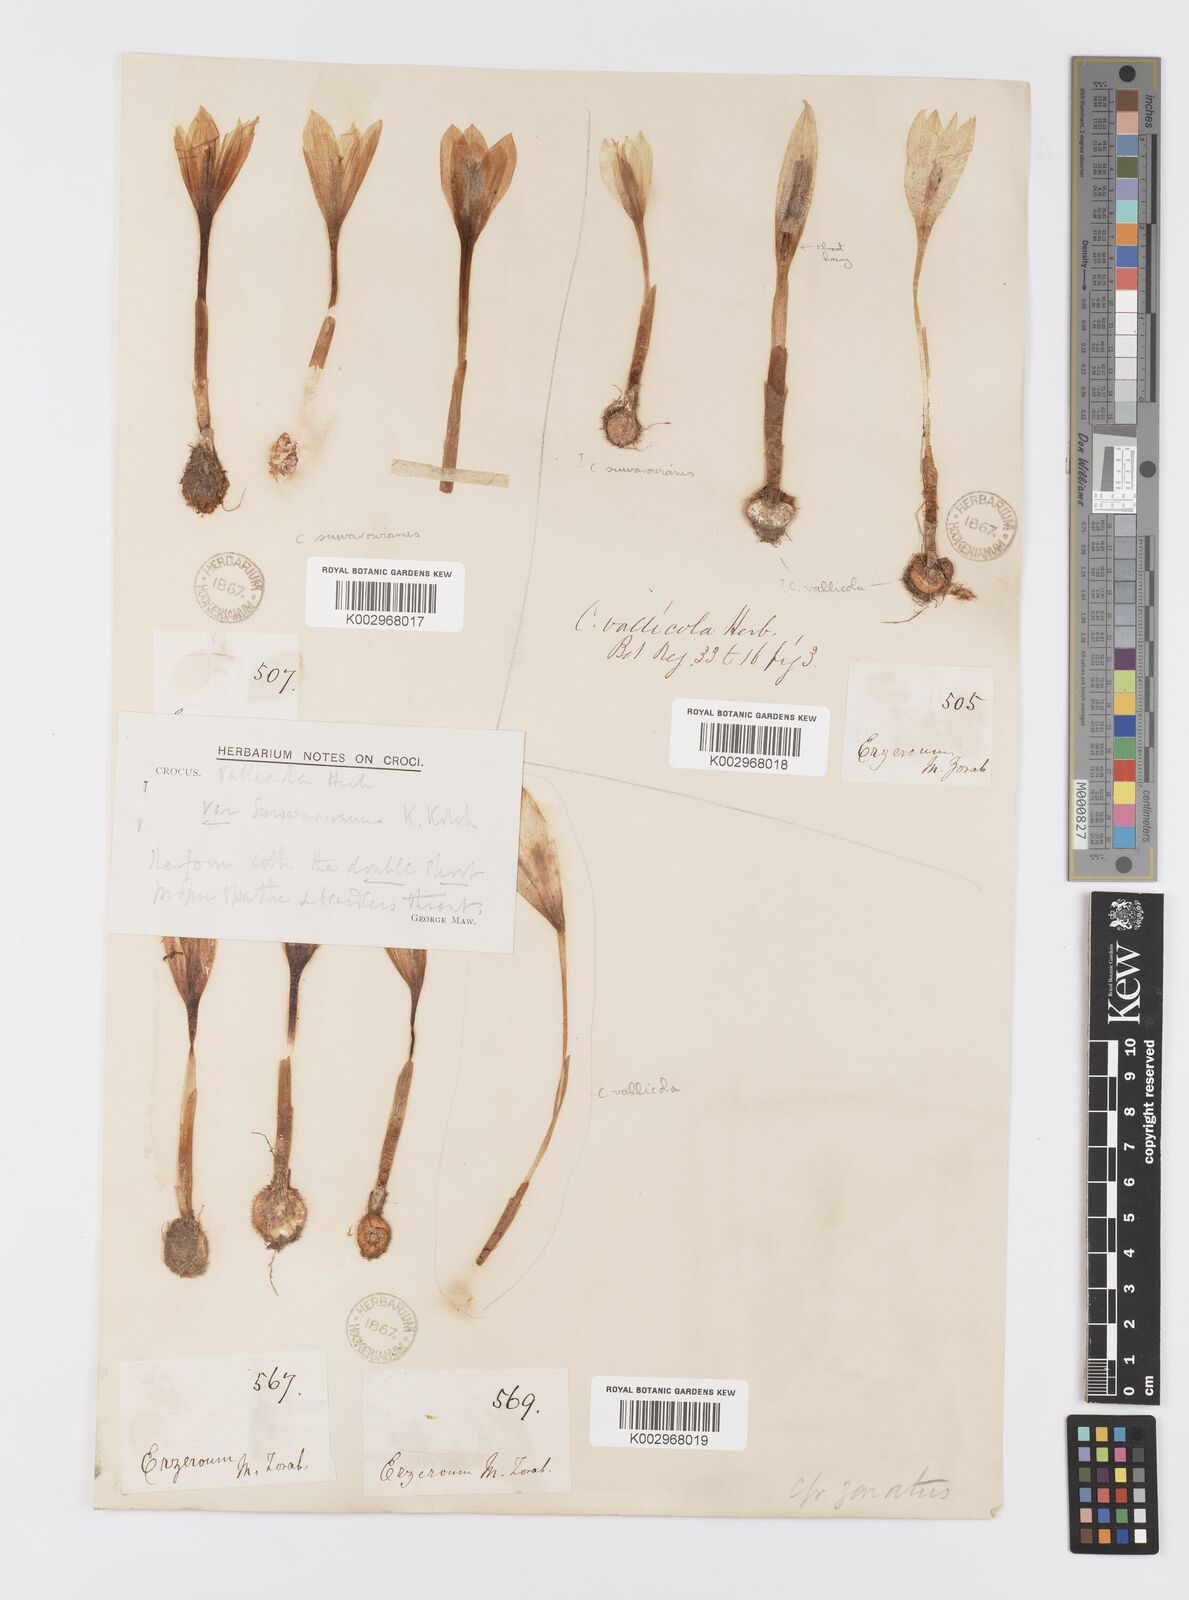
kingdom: Plantae
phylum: Tracheophyta
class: Liliopsida
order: Asparagales
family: Iridaceae
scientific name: Iridaceae
